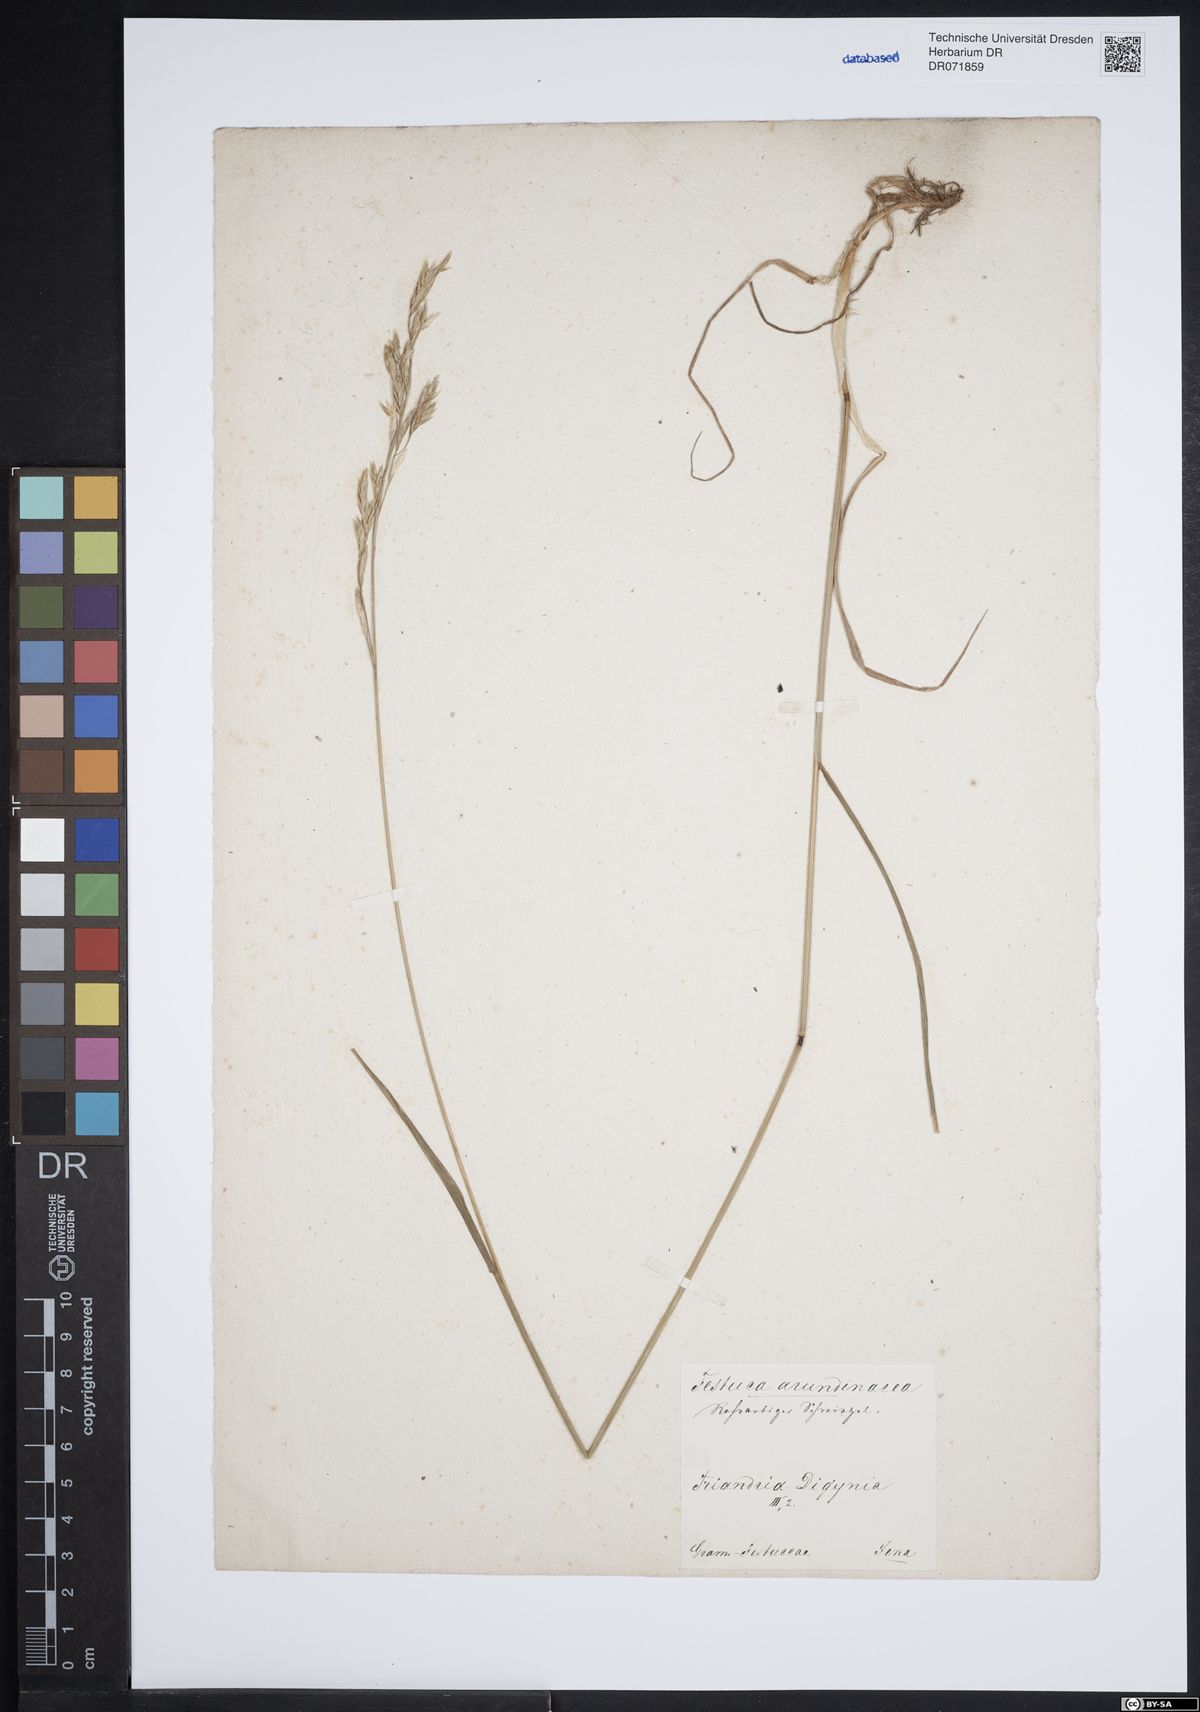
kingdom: Plantae
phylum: Tracheophyta
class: Liliopsida
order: Poales
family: Poaceae
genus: Lolium
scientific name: Lolium arundinaceum
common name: Reed fescue
